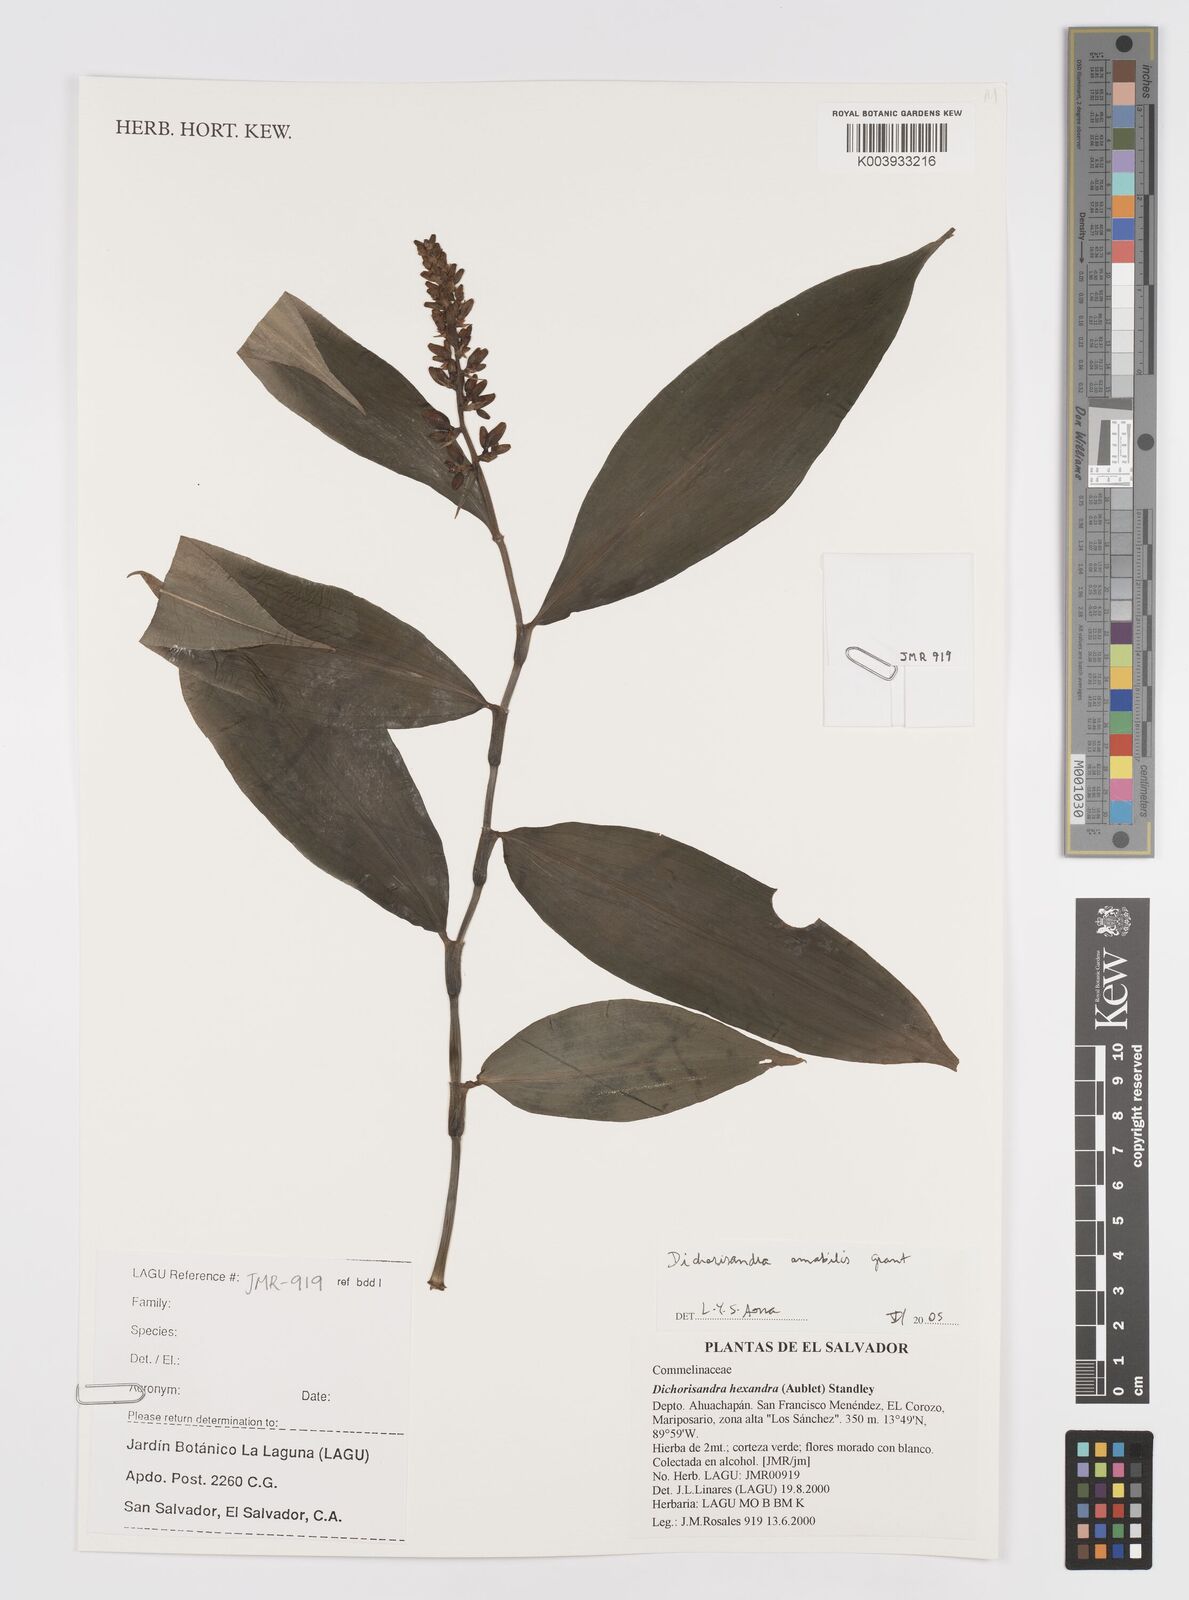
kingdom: Plantae
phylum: Tracheophyta
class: Liliopsida
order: Commelinales
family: Commelinaceae
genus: Dichorisandra
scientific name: Dichorisandra amabilis
